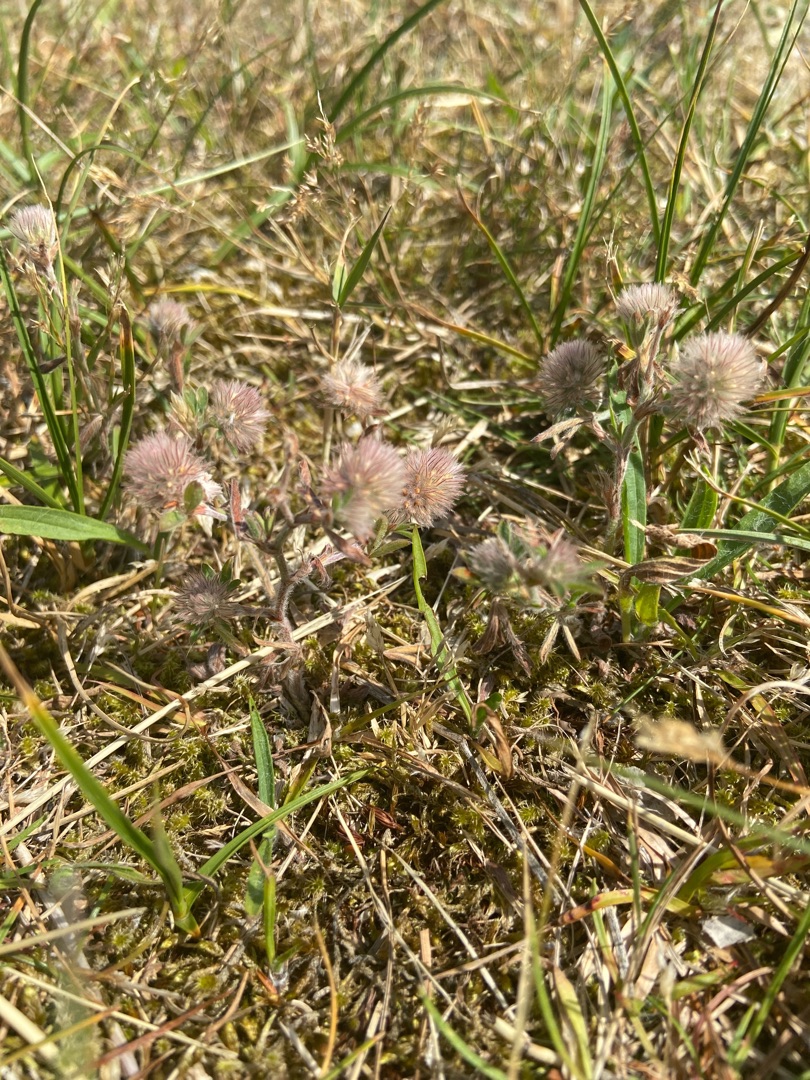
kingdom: Plantae
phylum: Tracheophyta
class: Magnoliopsida
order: Fabales
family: Fabaceae
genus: Trifolium
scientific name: Trifolium arvense
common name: Hare-kløver
